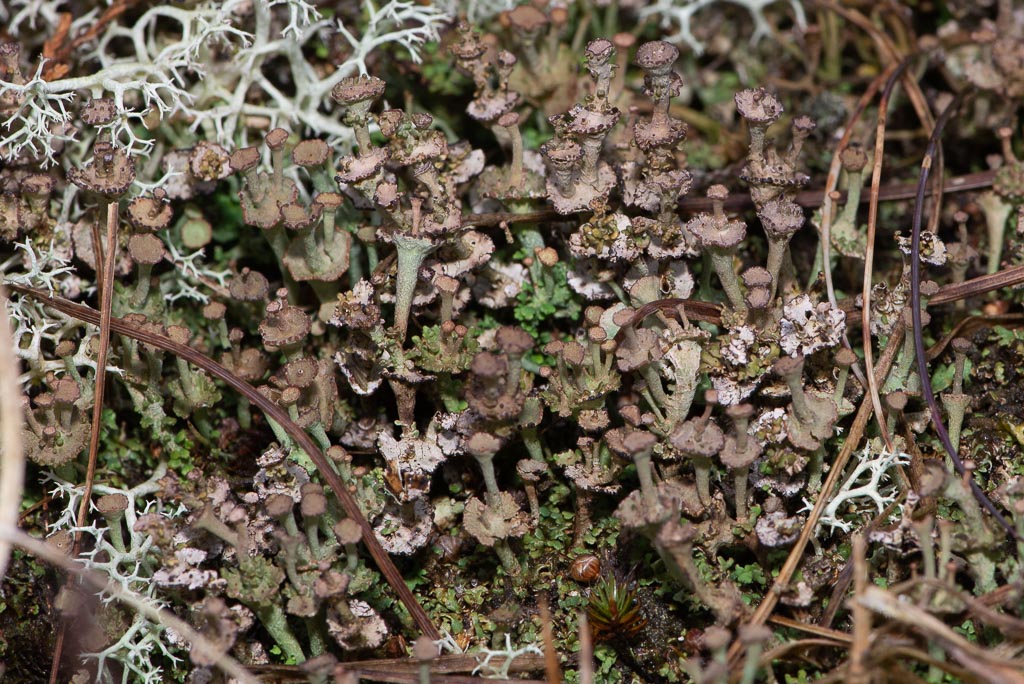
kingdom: Fungi
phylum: Ascomycota
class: Lecanoromycetes
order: Lecanorales
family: Cladoniaceae
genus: Cladonia
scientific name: Cladonia cervicornis
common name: etage-bægerlav
